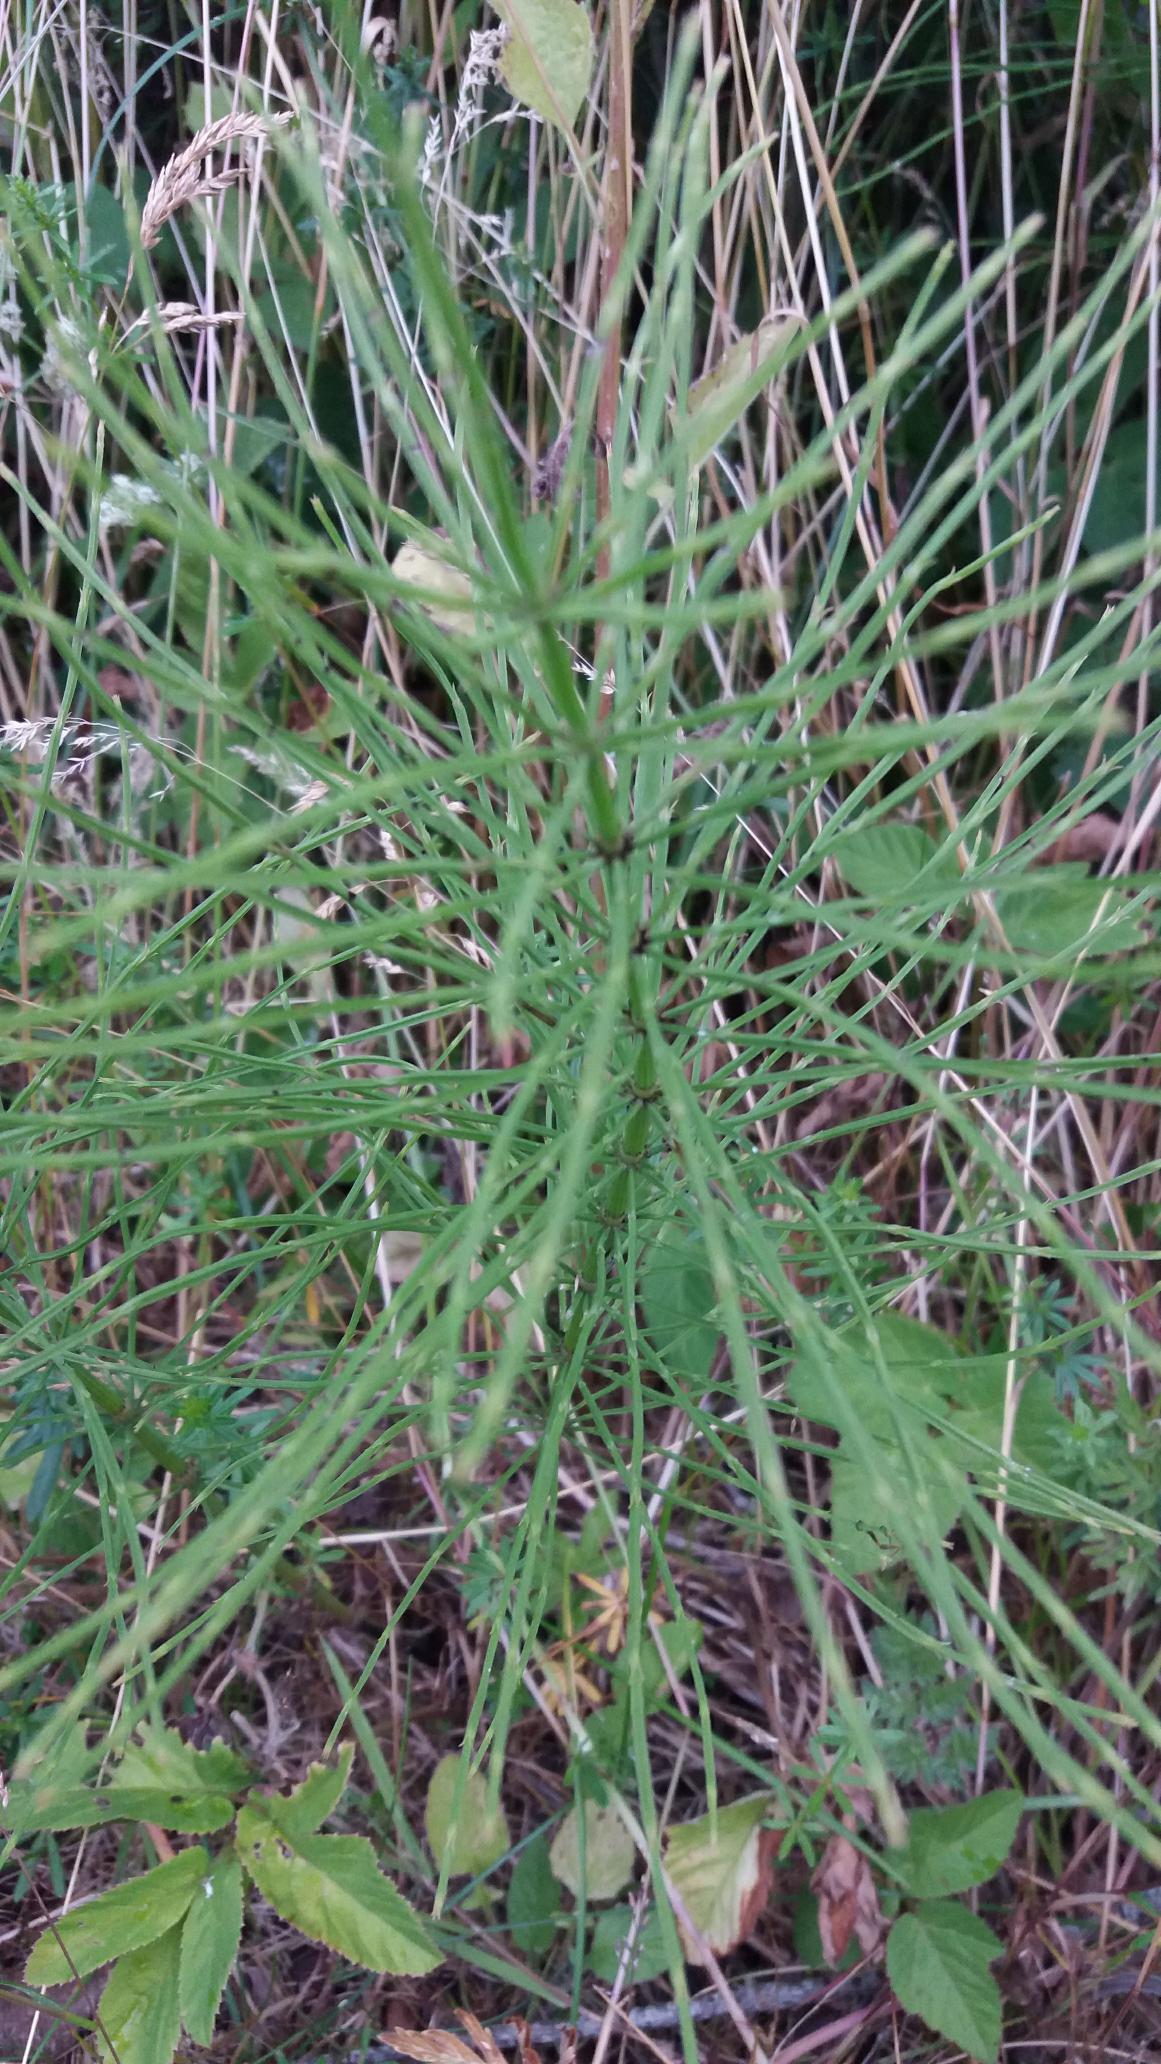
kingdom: Plantae
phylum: Tracheophyta
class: Polypodiopsida
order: Equisetales
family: Equisetaceae
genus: Equisetum
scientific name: Equisetum arvense
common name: Ager-padderok
